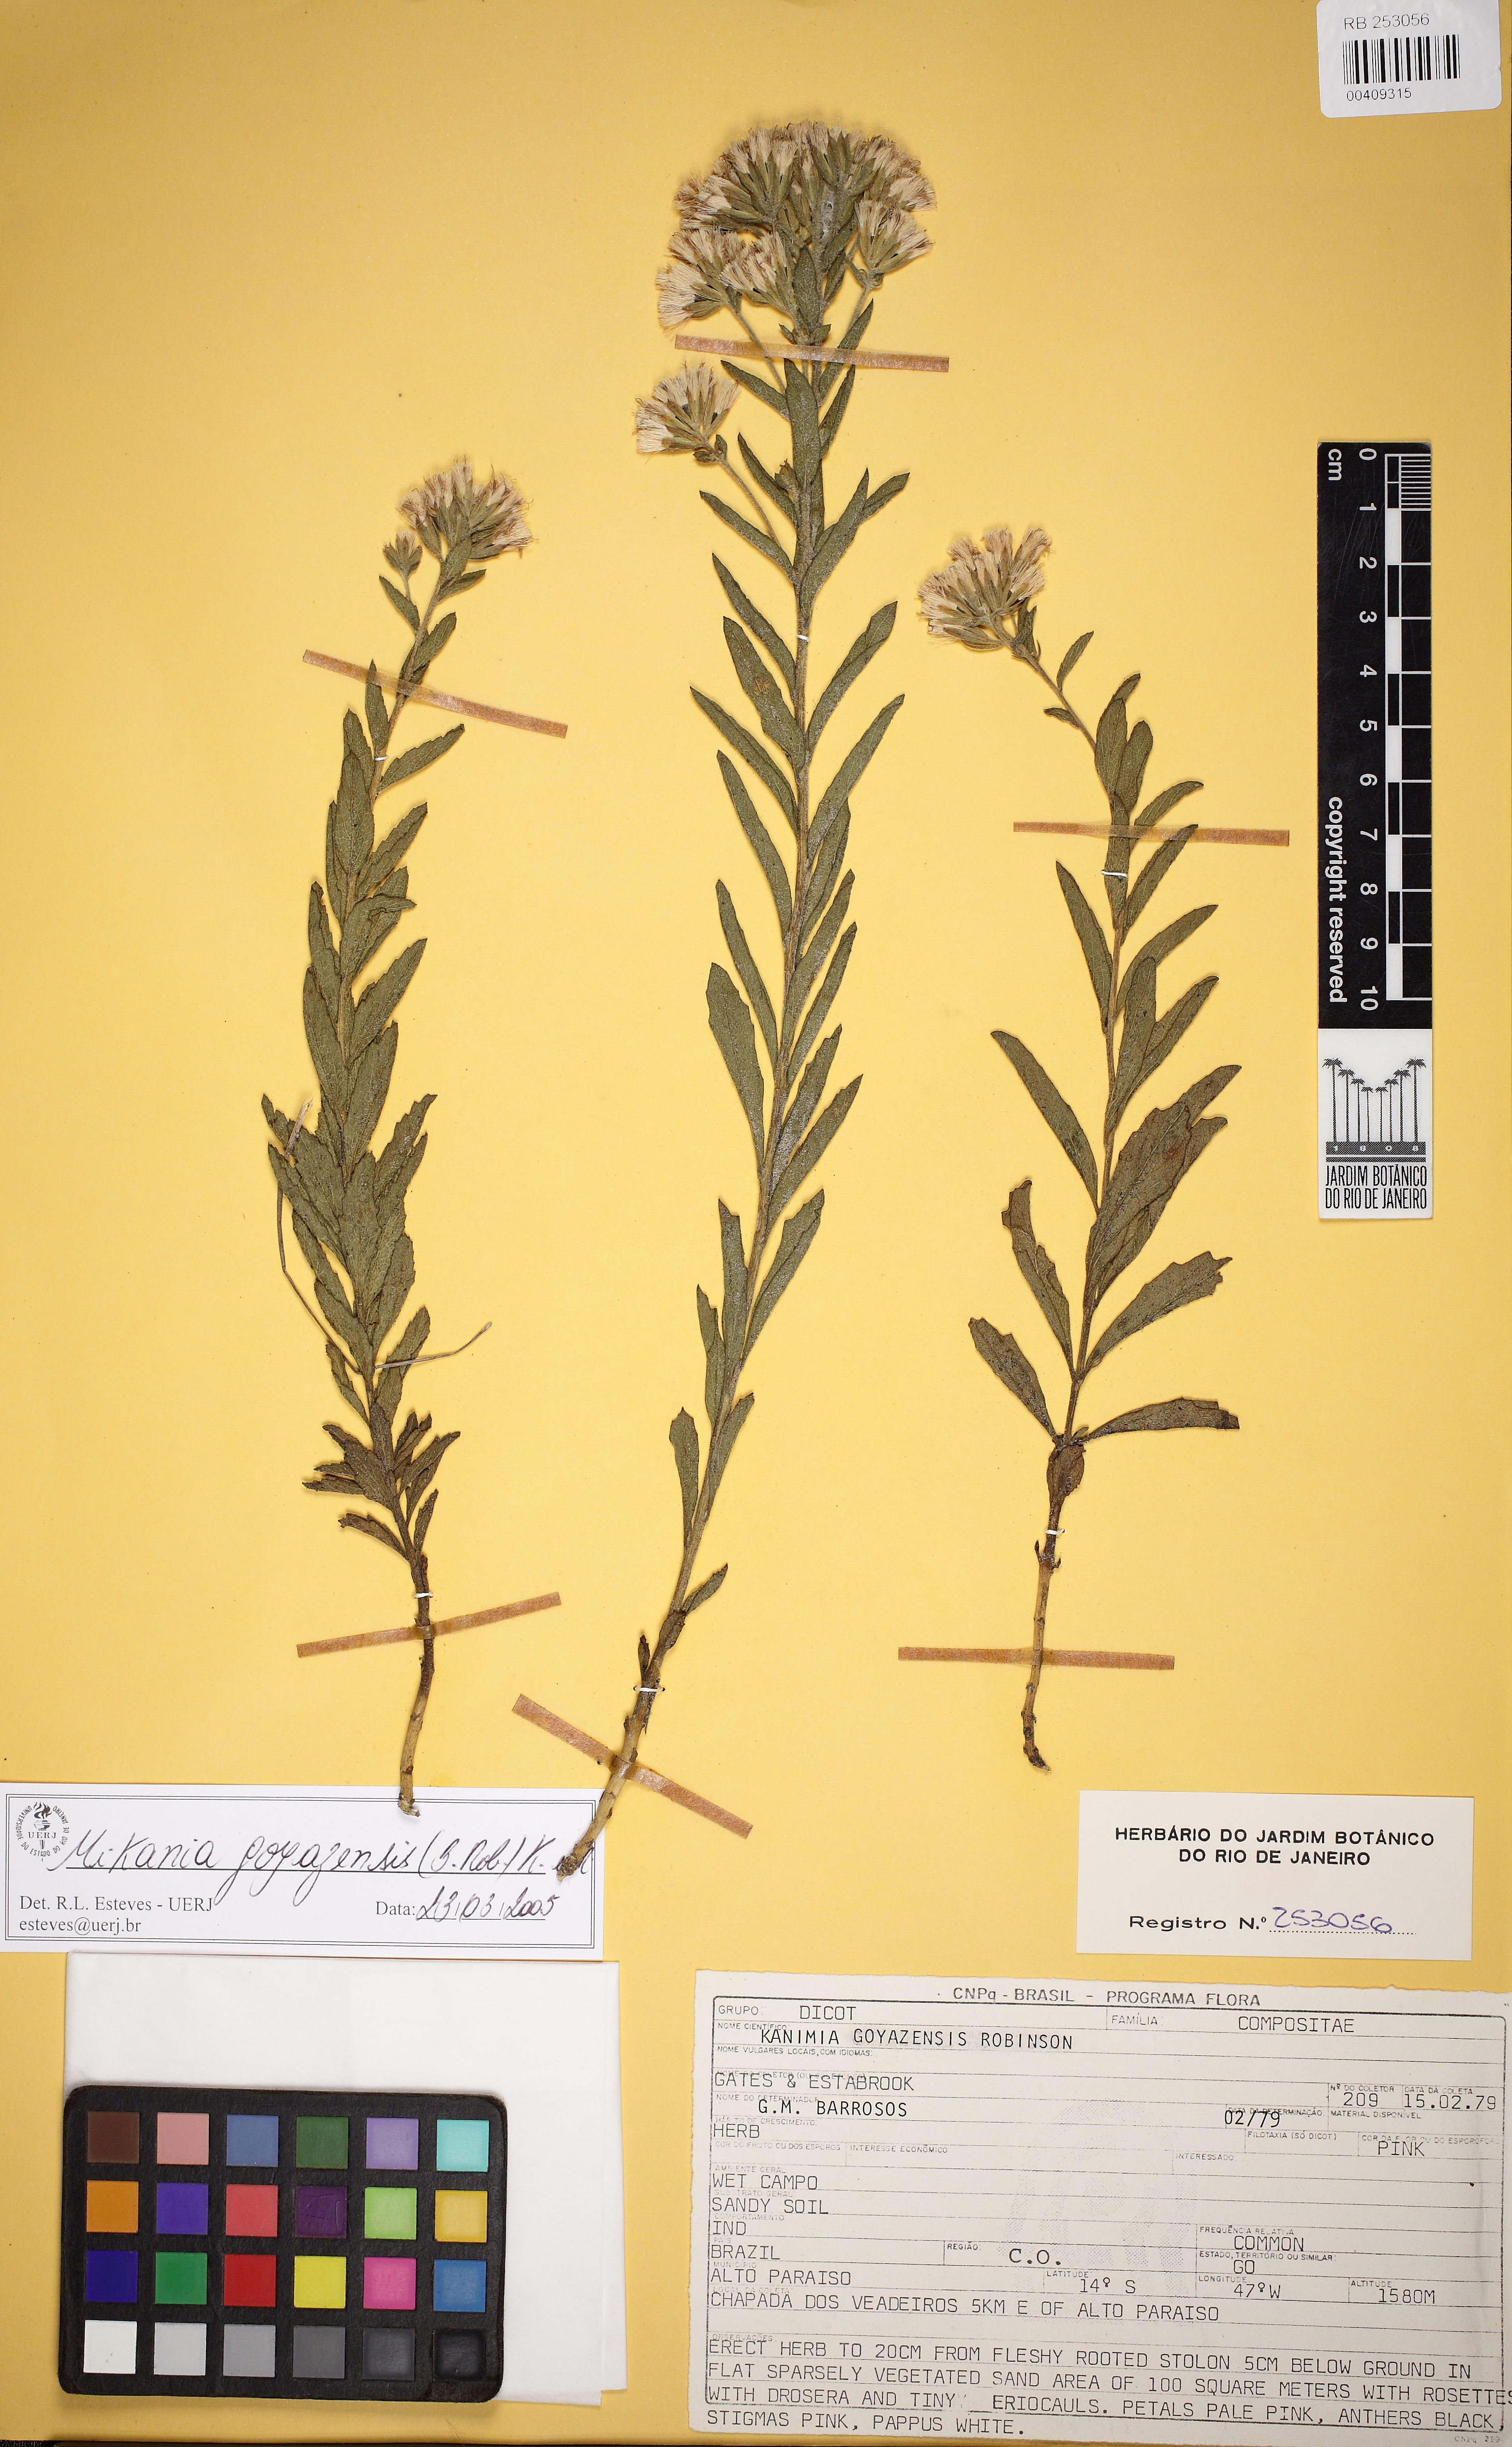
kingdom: Plantae
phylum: Tracheophyta
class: Magnoliopsida
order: Asterales
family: Asteraceae
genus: Mikania
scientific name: Mikania goyazensis
